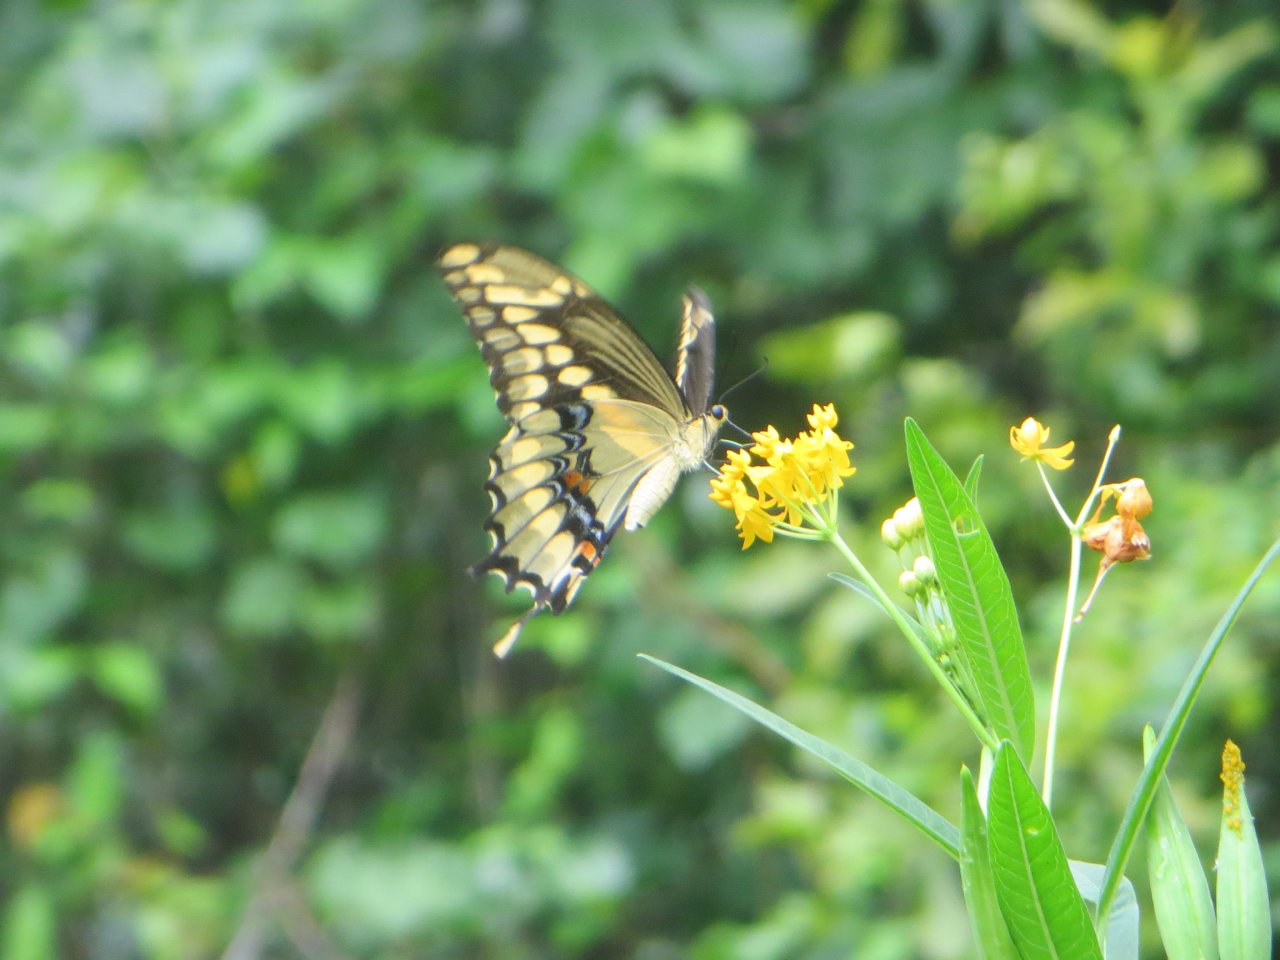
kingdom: Animalia
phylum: Arthropoda
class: Insecta
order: Lepidoptera
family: Papilionidae
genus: Papilio
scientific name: Papilio cresphontes
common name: Eastern Giant Swallowtail
